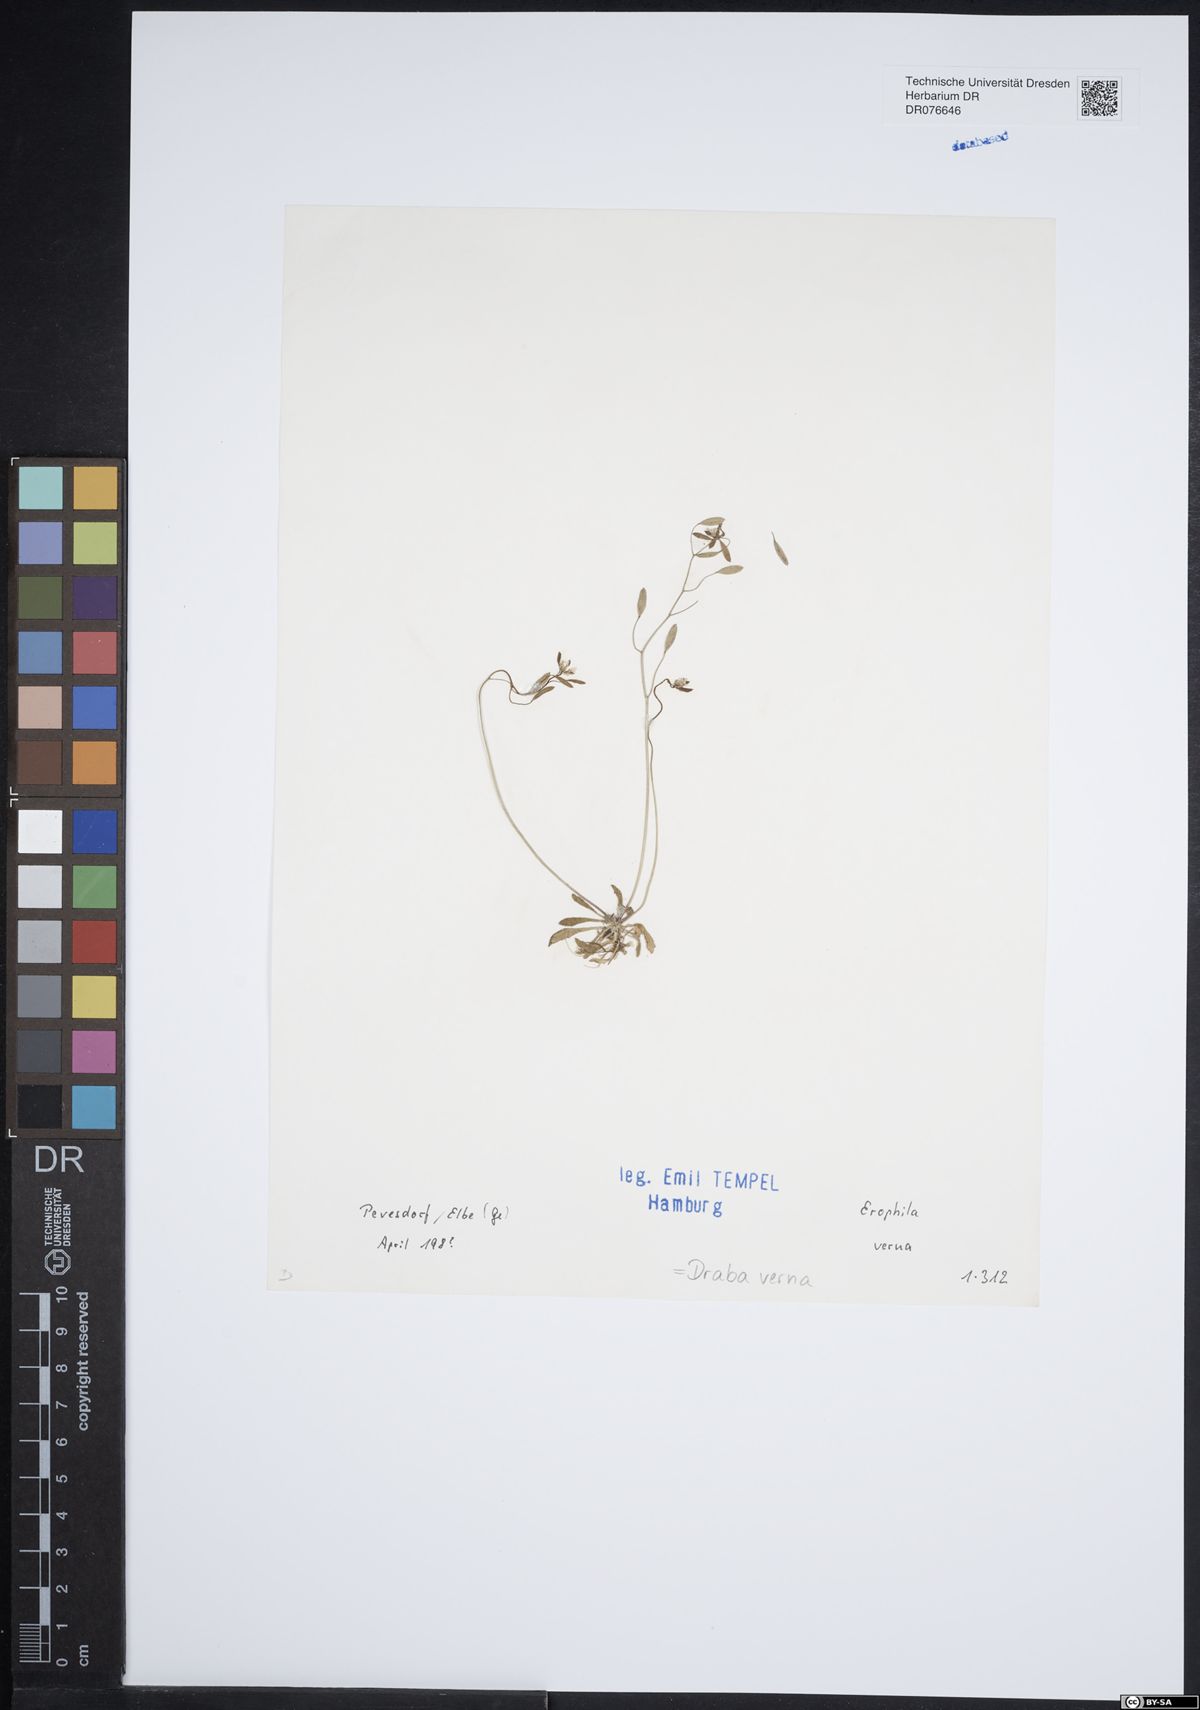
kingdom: Plantae
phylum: Tracheophyta
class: Magnoliopsida
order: Brassicales
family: Brassicaceae
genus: Draba
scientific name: Draba verna
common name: Spring draba
